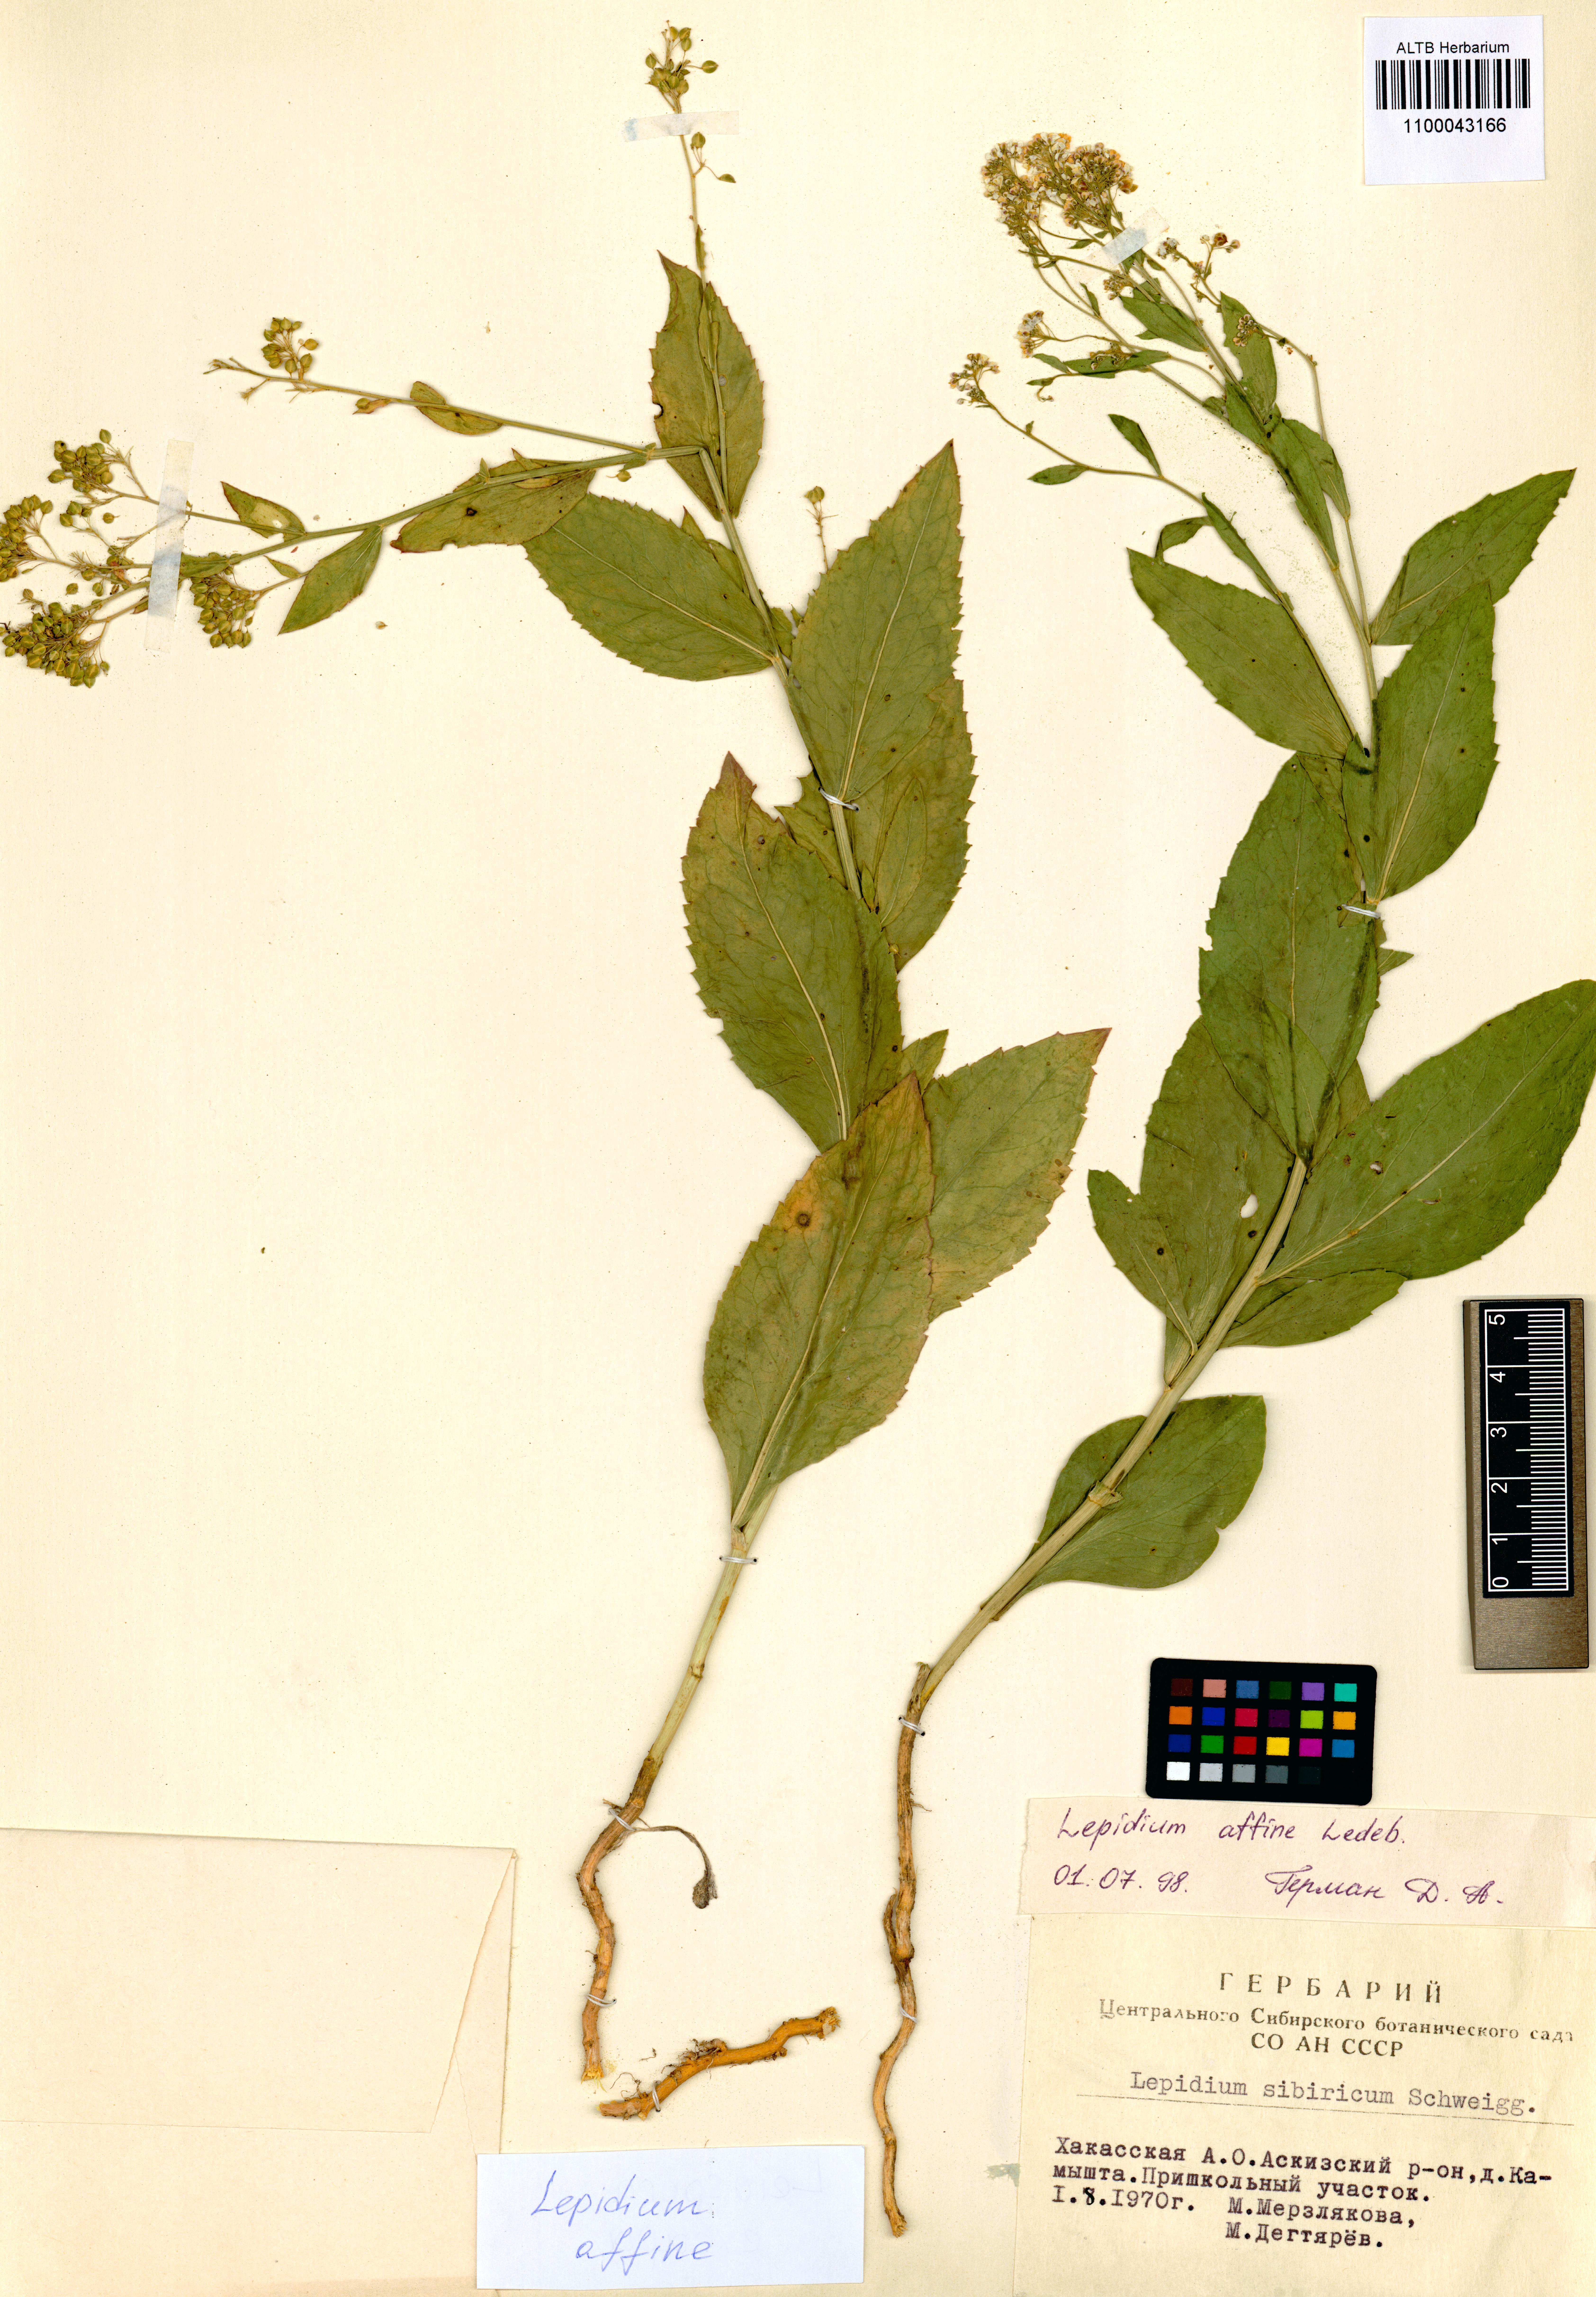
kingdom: Plantae
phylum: Tracheophyta
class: Magnoliopsida
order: Brassicales
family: Brassicaceae
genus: Lepidium
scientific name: Lepidium latifolium
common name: Dittander
